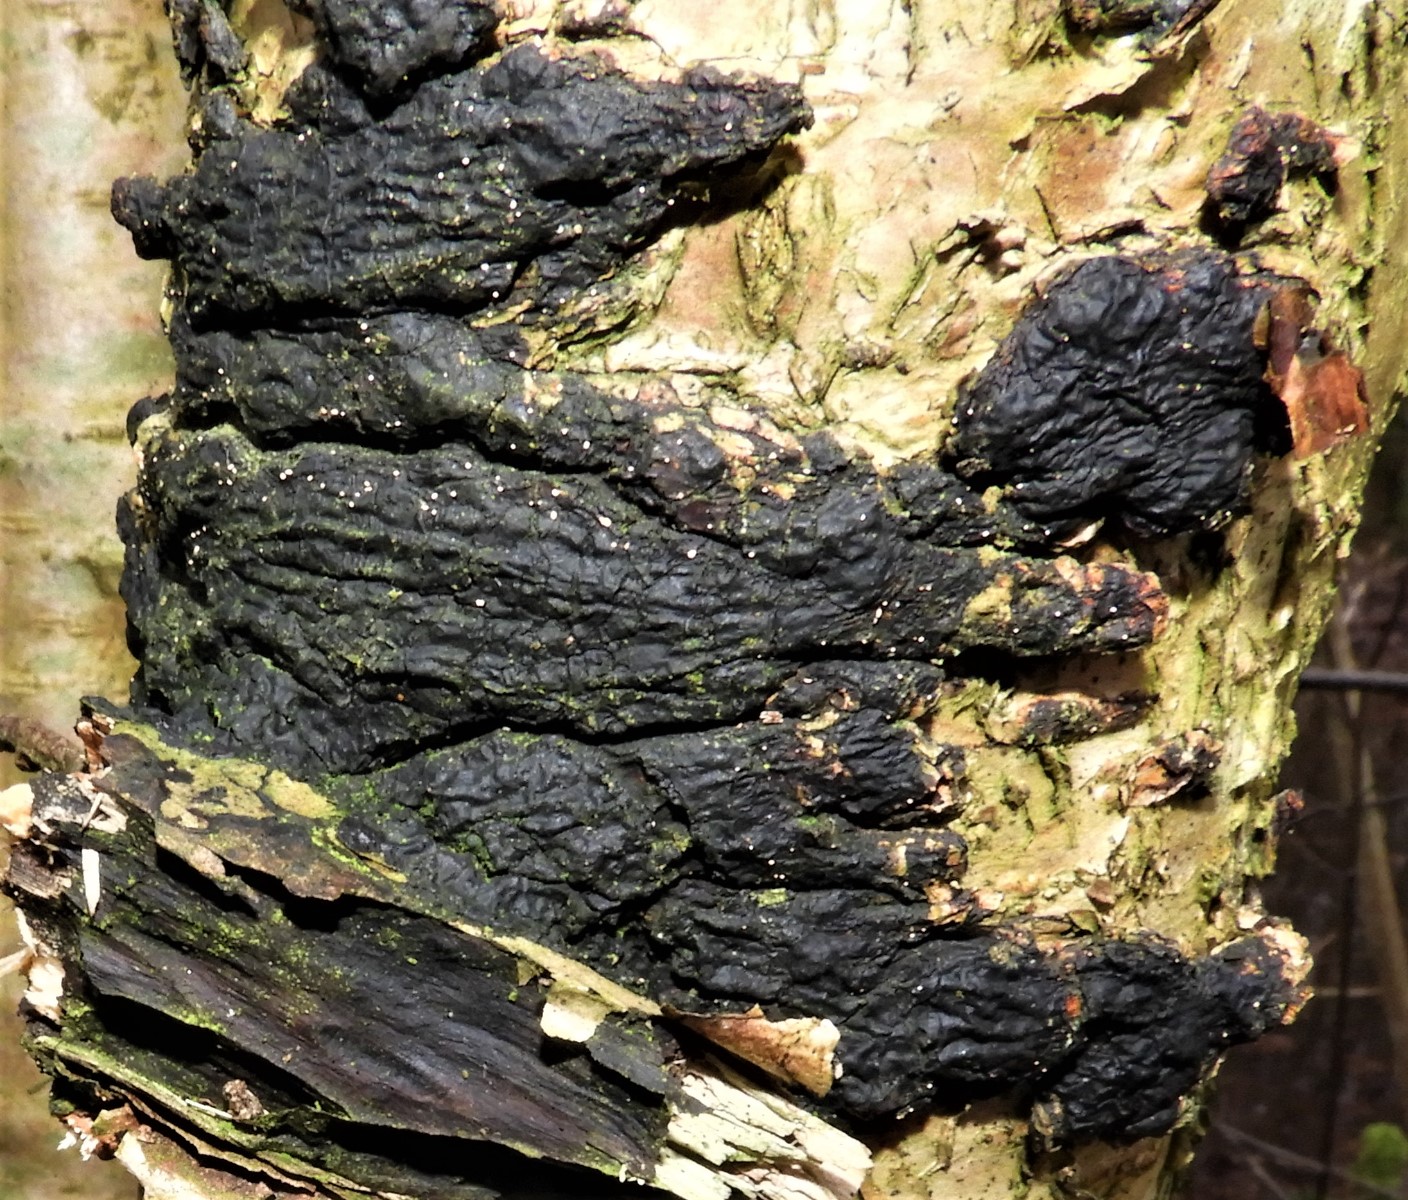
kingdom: Fungi
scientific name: Fungi
